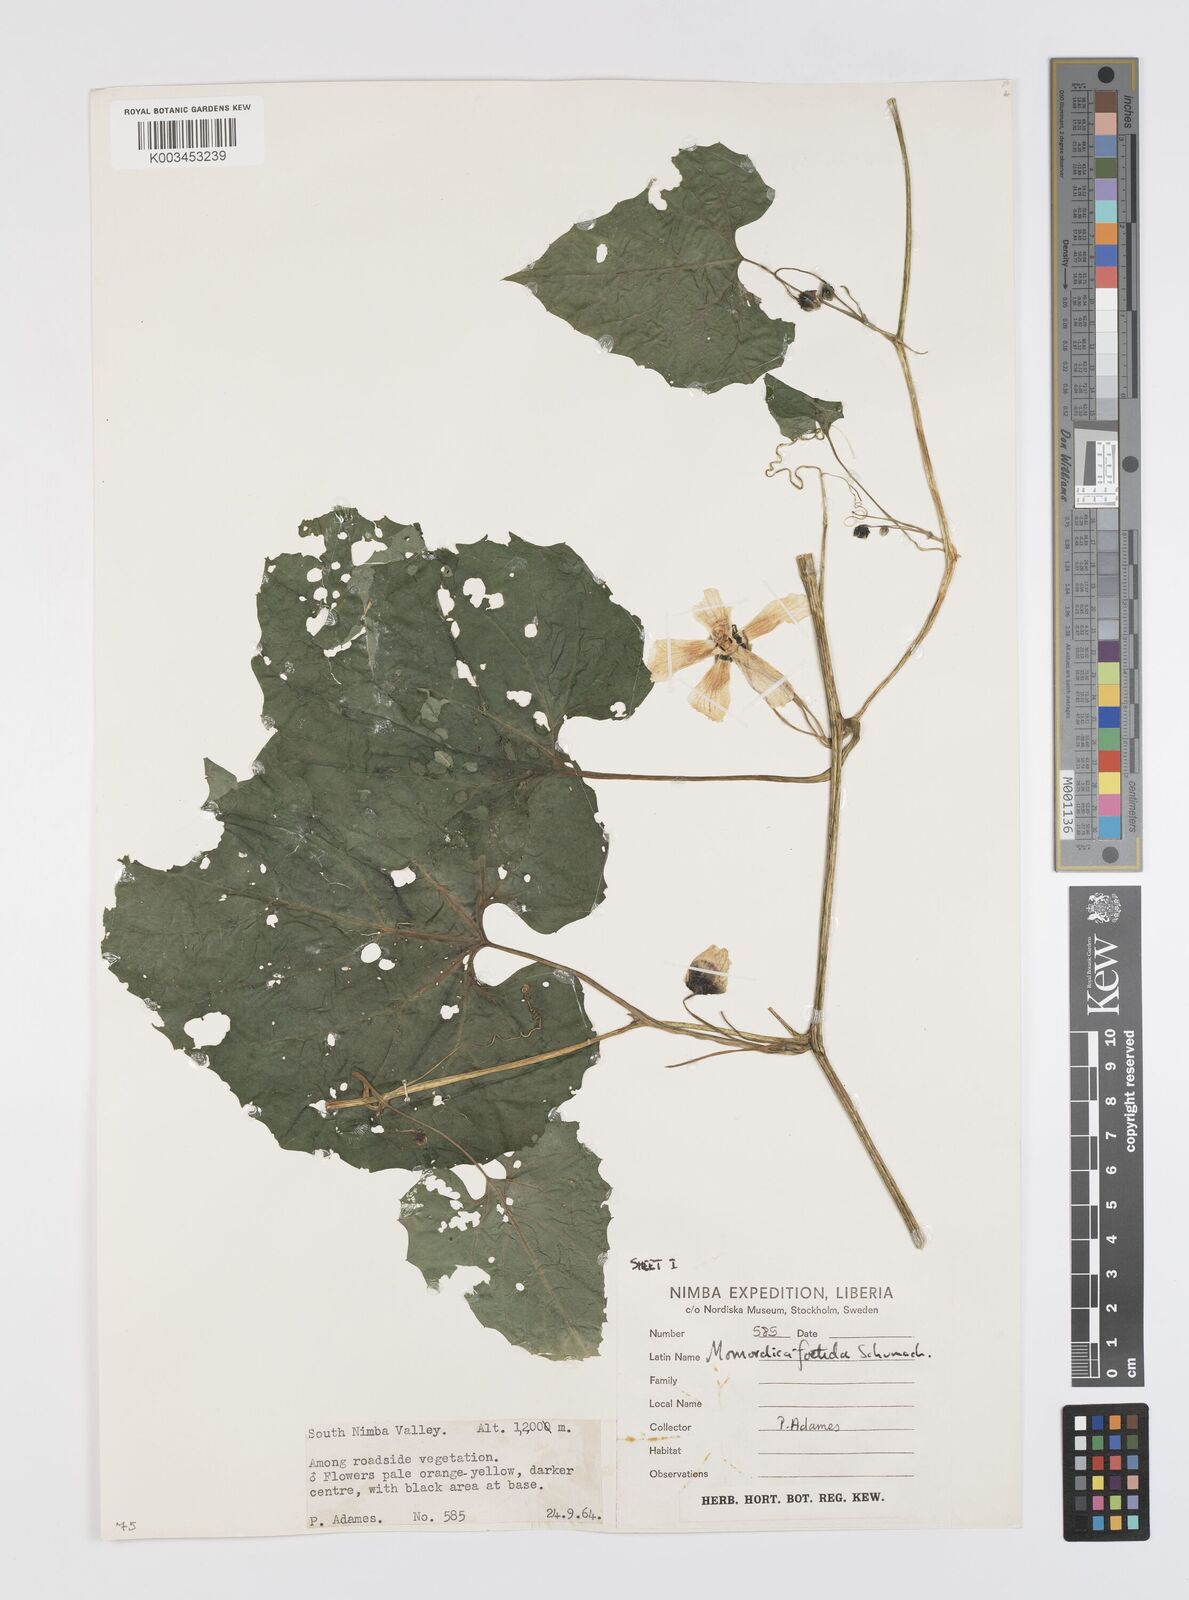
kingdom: Plantae
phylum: Tracheophyta
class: Magnoliopsida
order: Cucurbitales
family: Cucurbitaceae
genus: Momordica
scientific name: Momordica foetida
